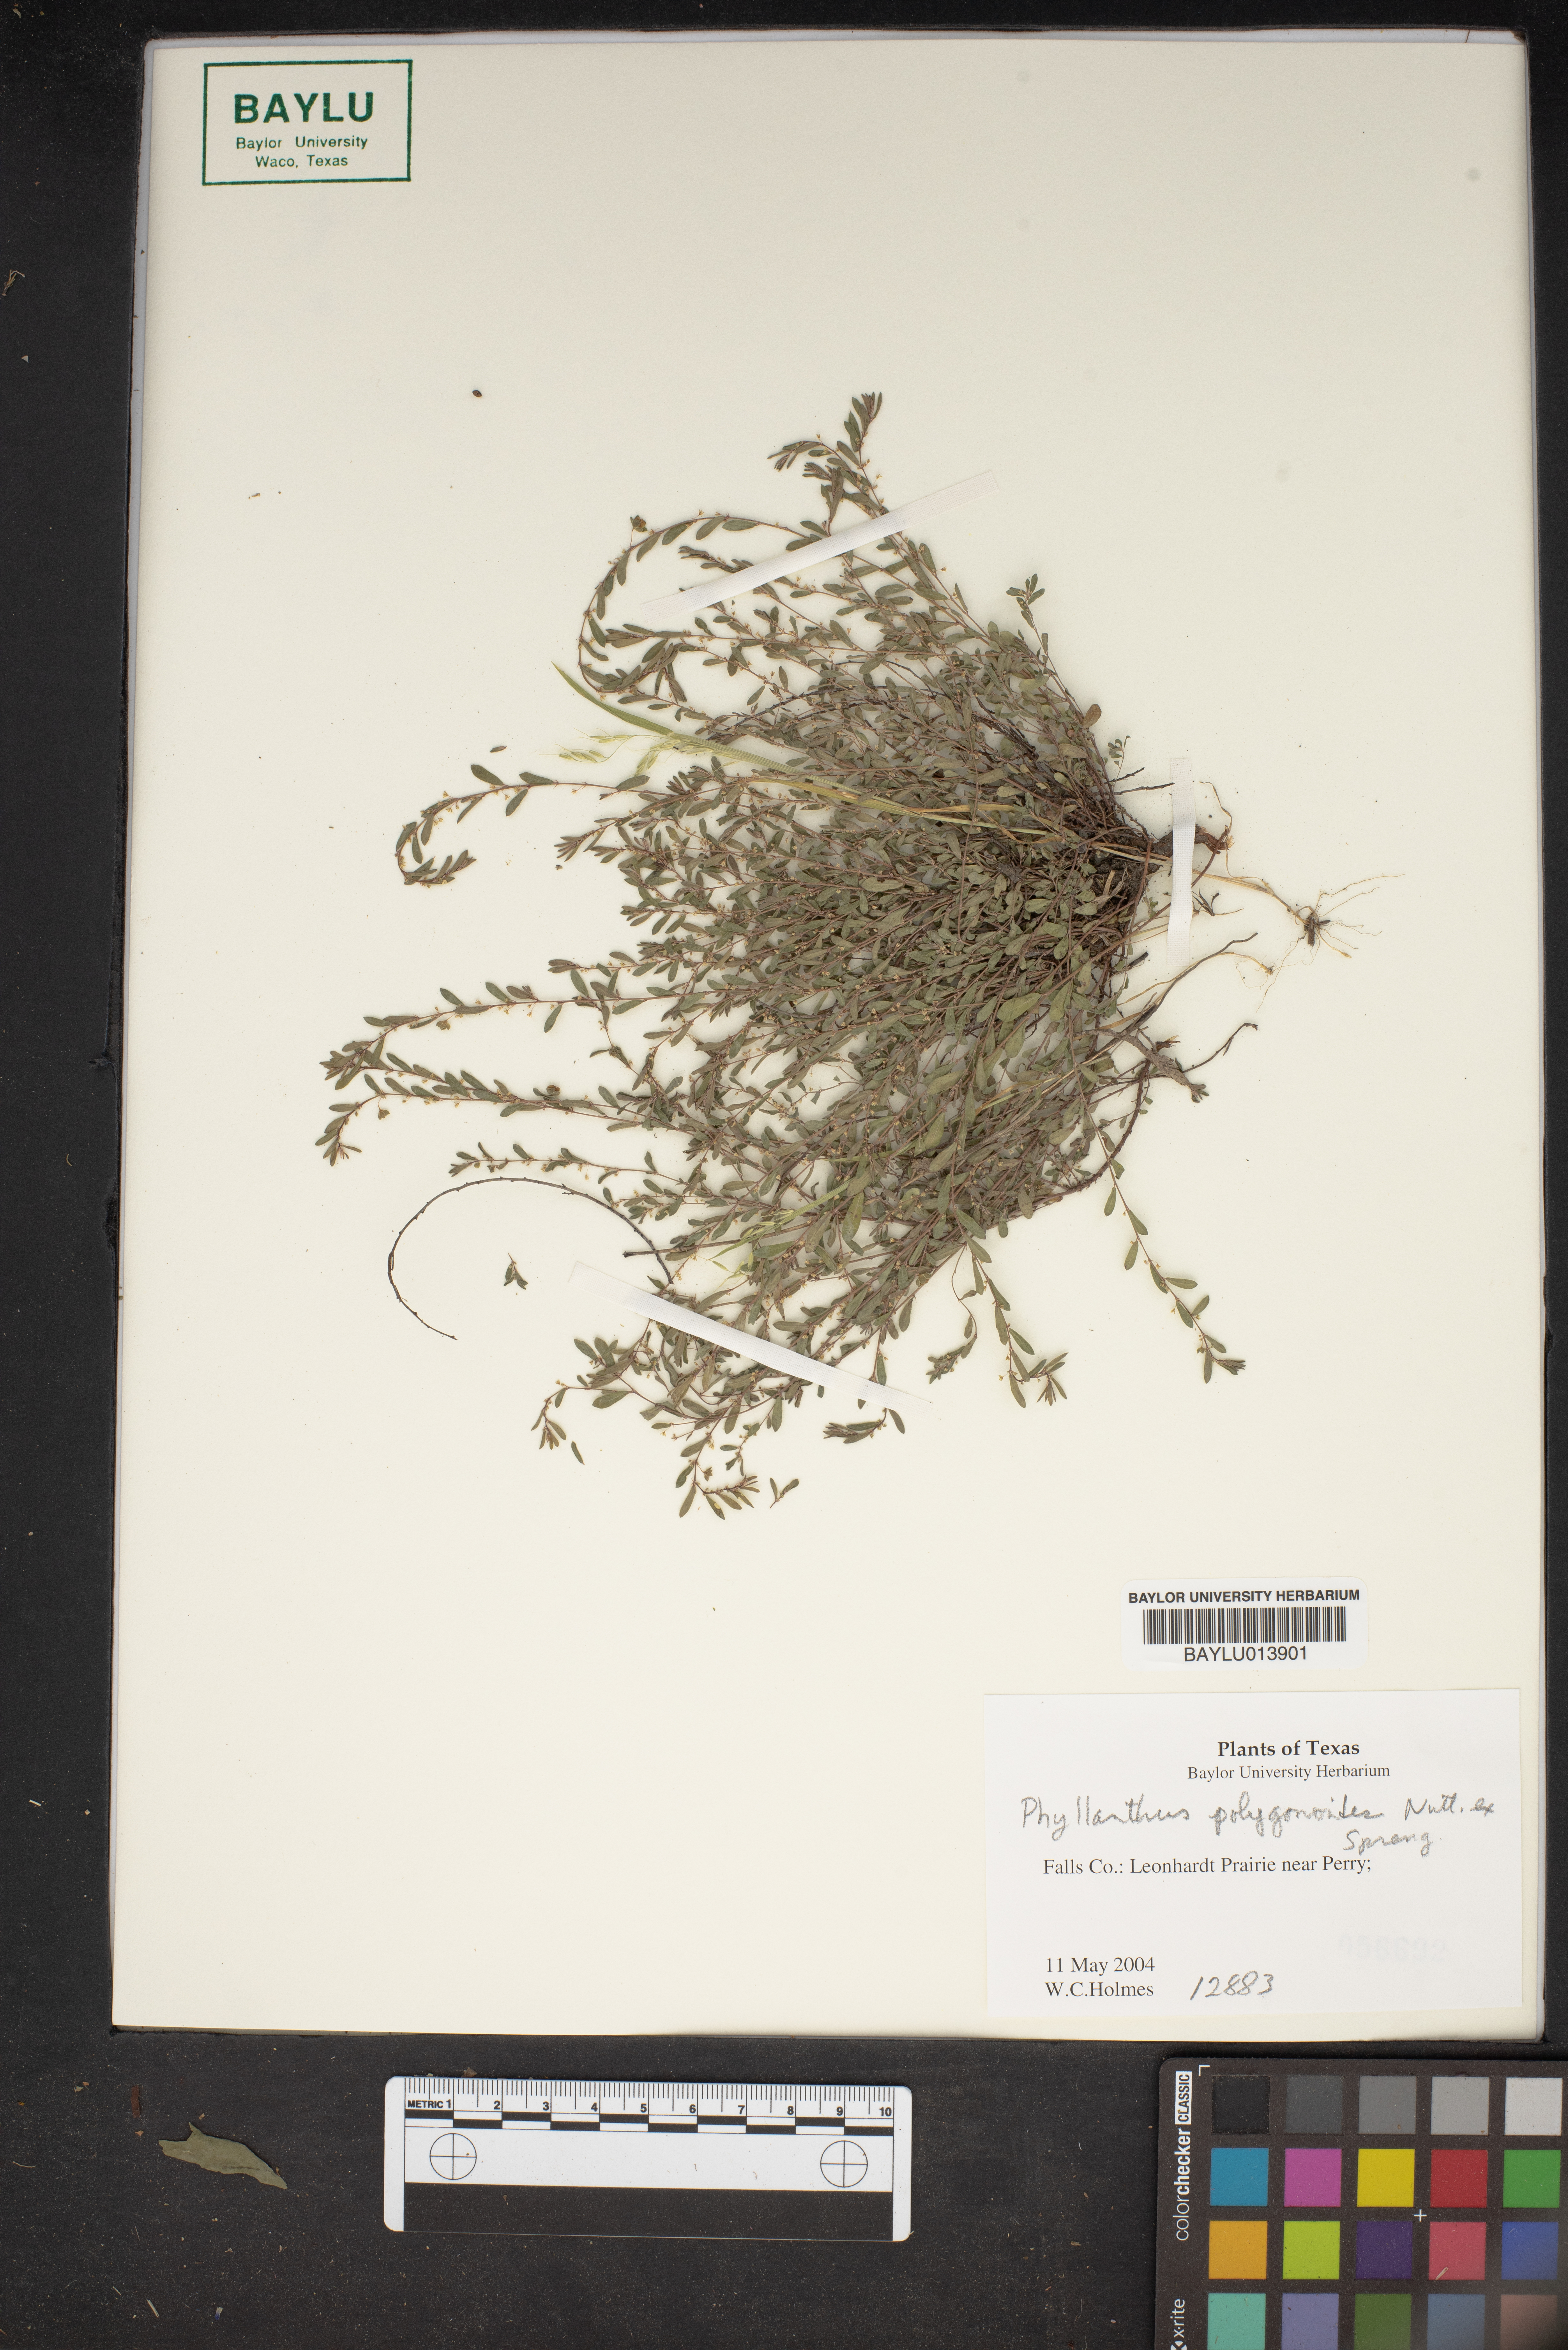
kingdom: Plantae
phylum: Tracheophyta
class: Magnoliopsida
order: Malpighiales
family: Phyllanthaceae
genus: Phyllanthus
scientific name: Phyllanthus polygonoides
